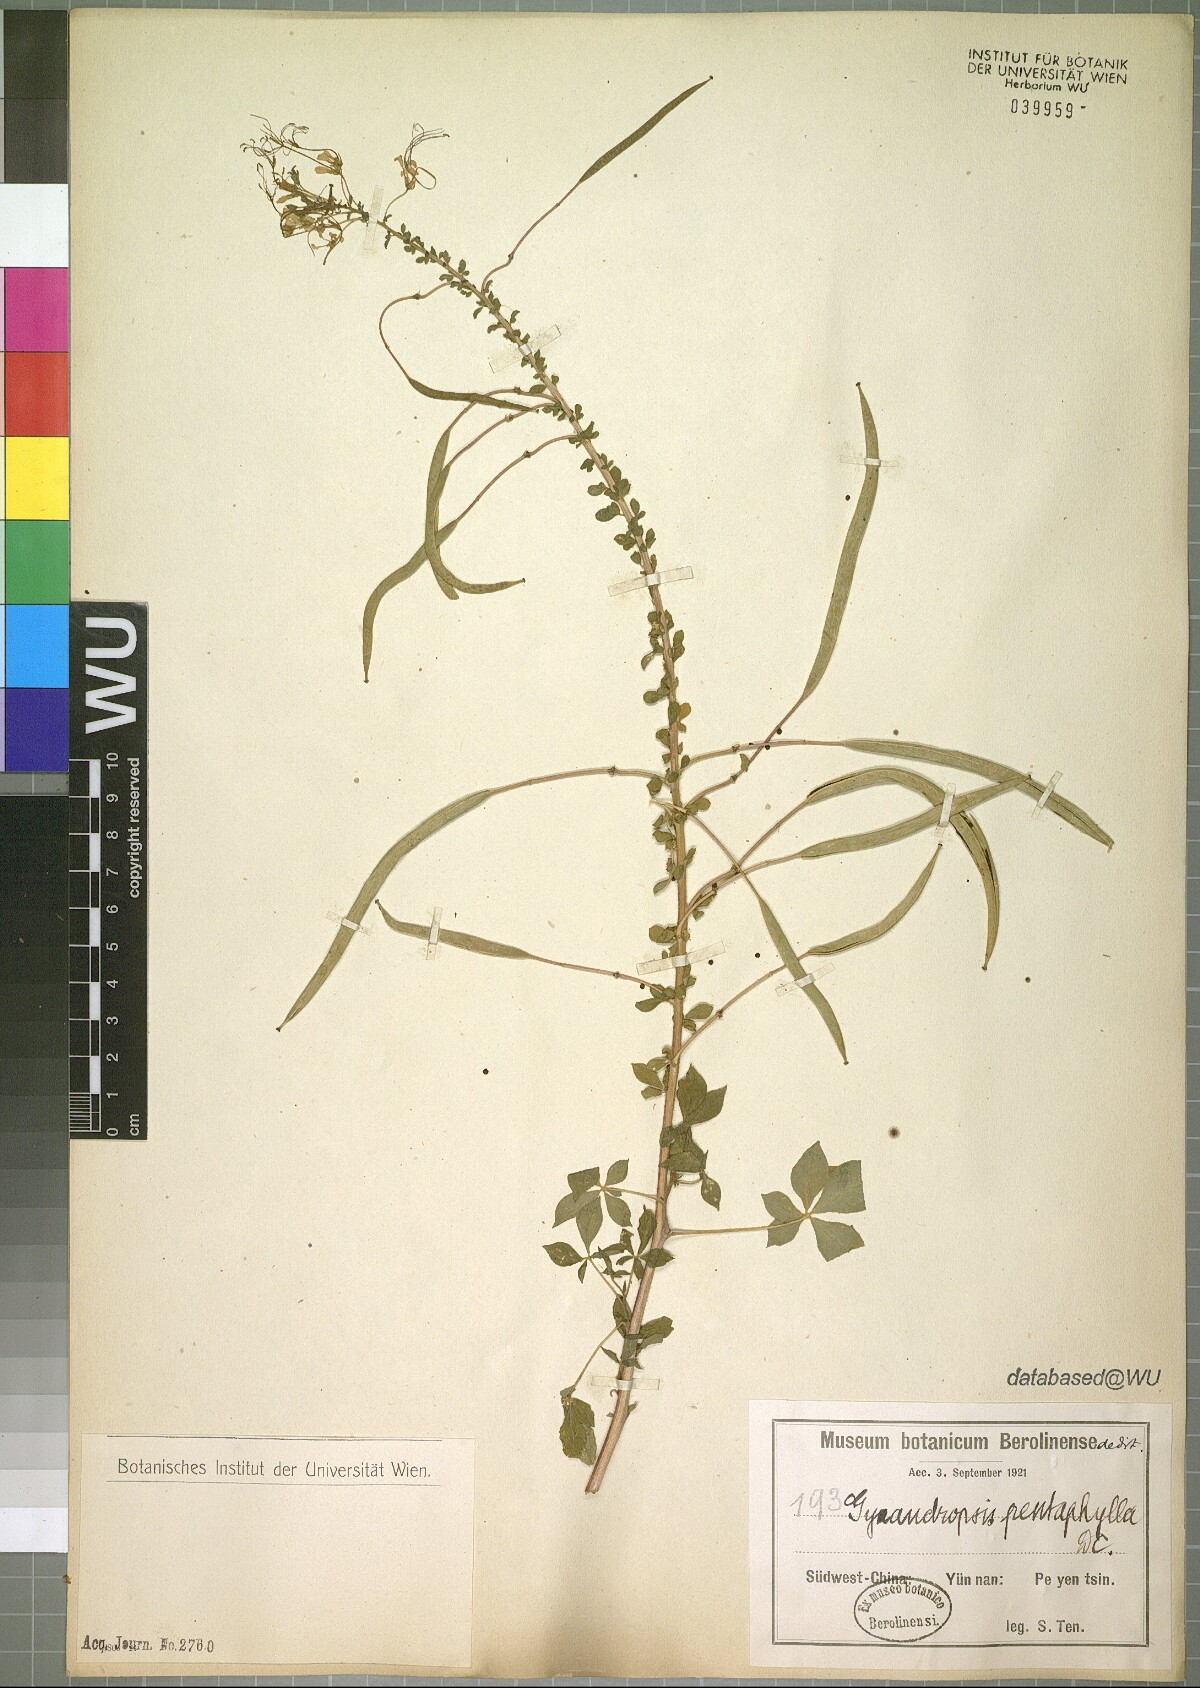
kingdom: Plantae
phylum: Tracheophyta
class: Magnoliopsida
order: Brassicales
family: Cleomaceae
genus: Gynandropsis
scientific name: Gynandropsis gynandra
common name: Spiderwisp
